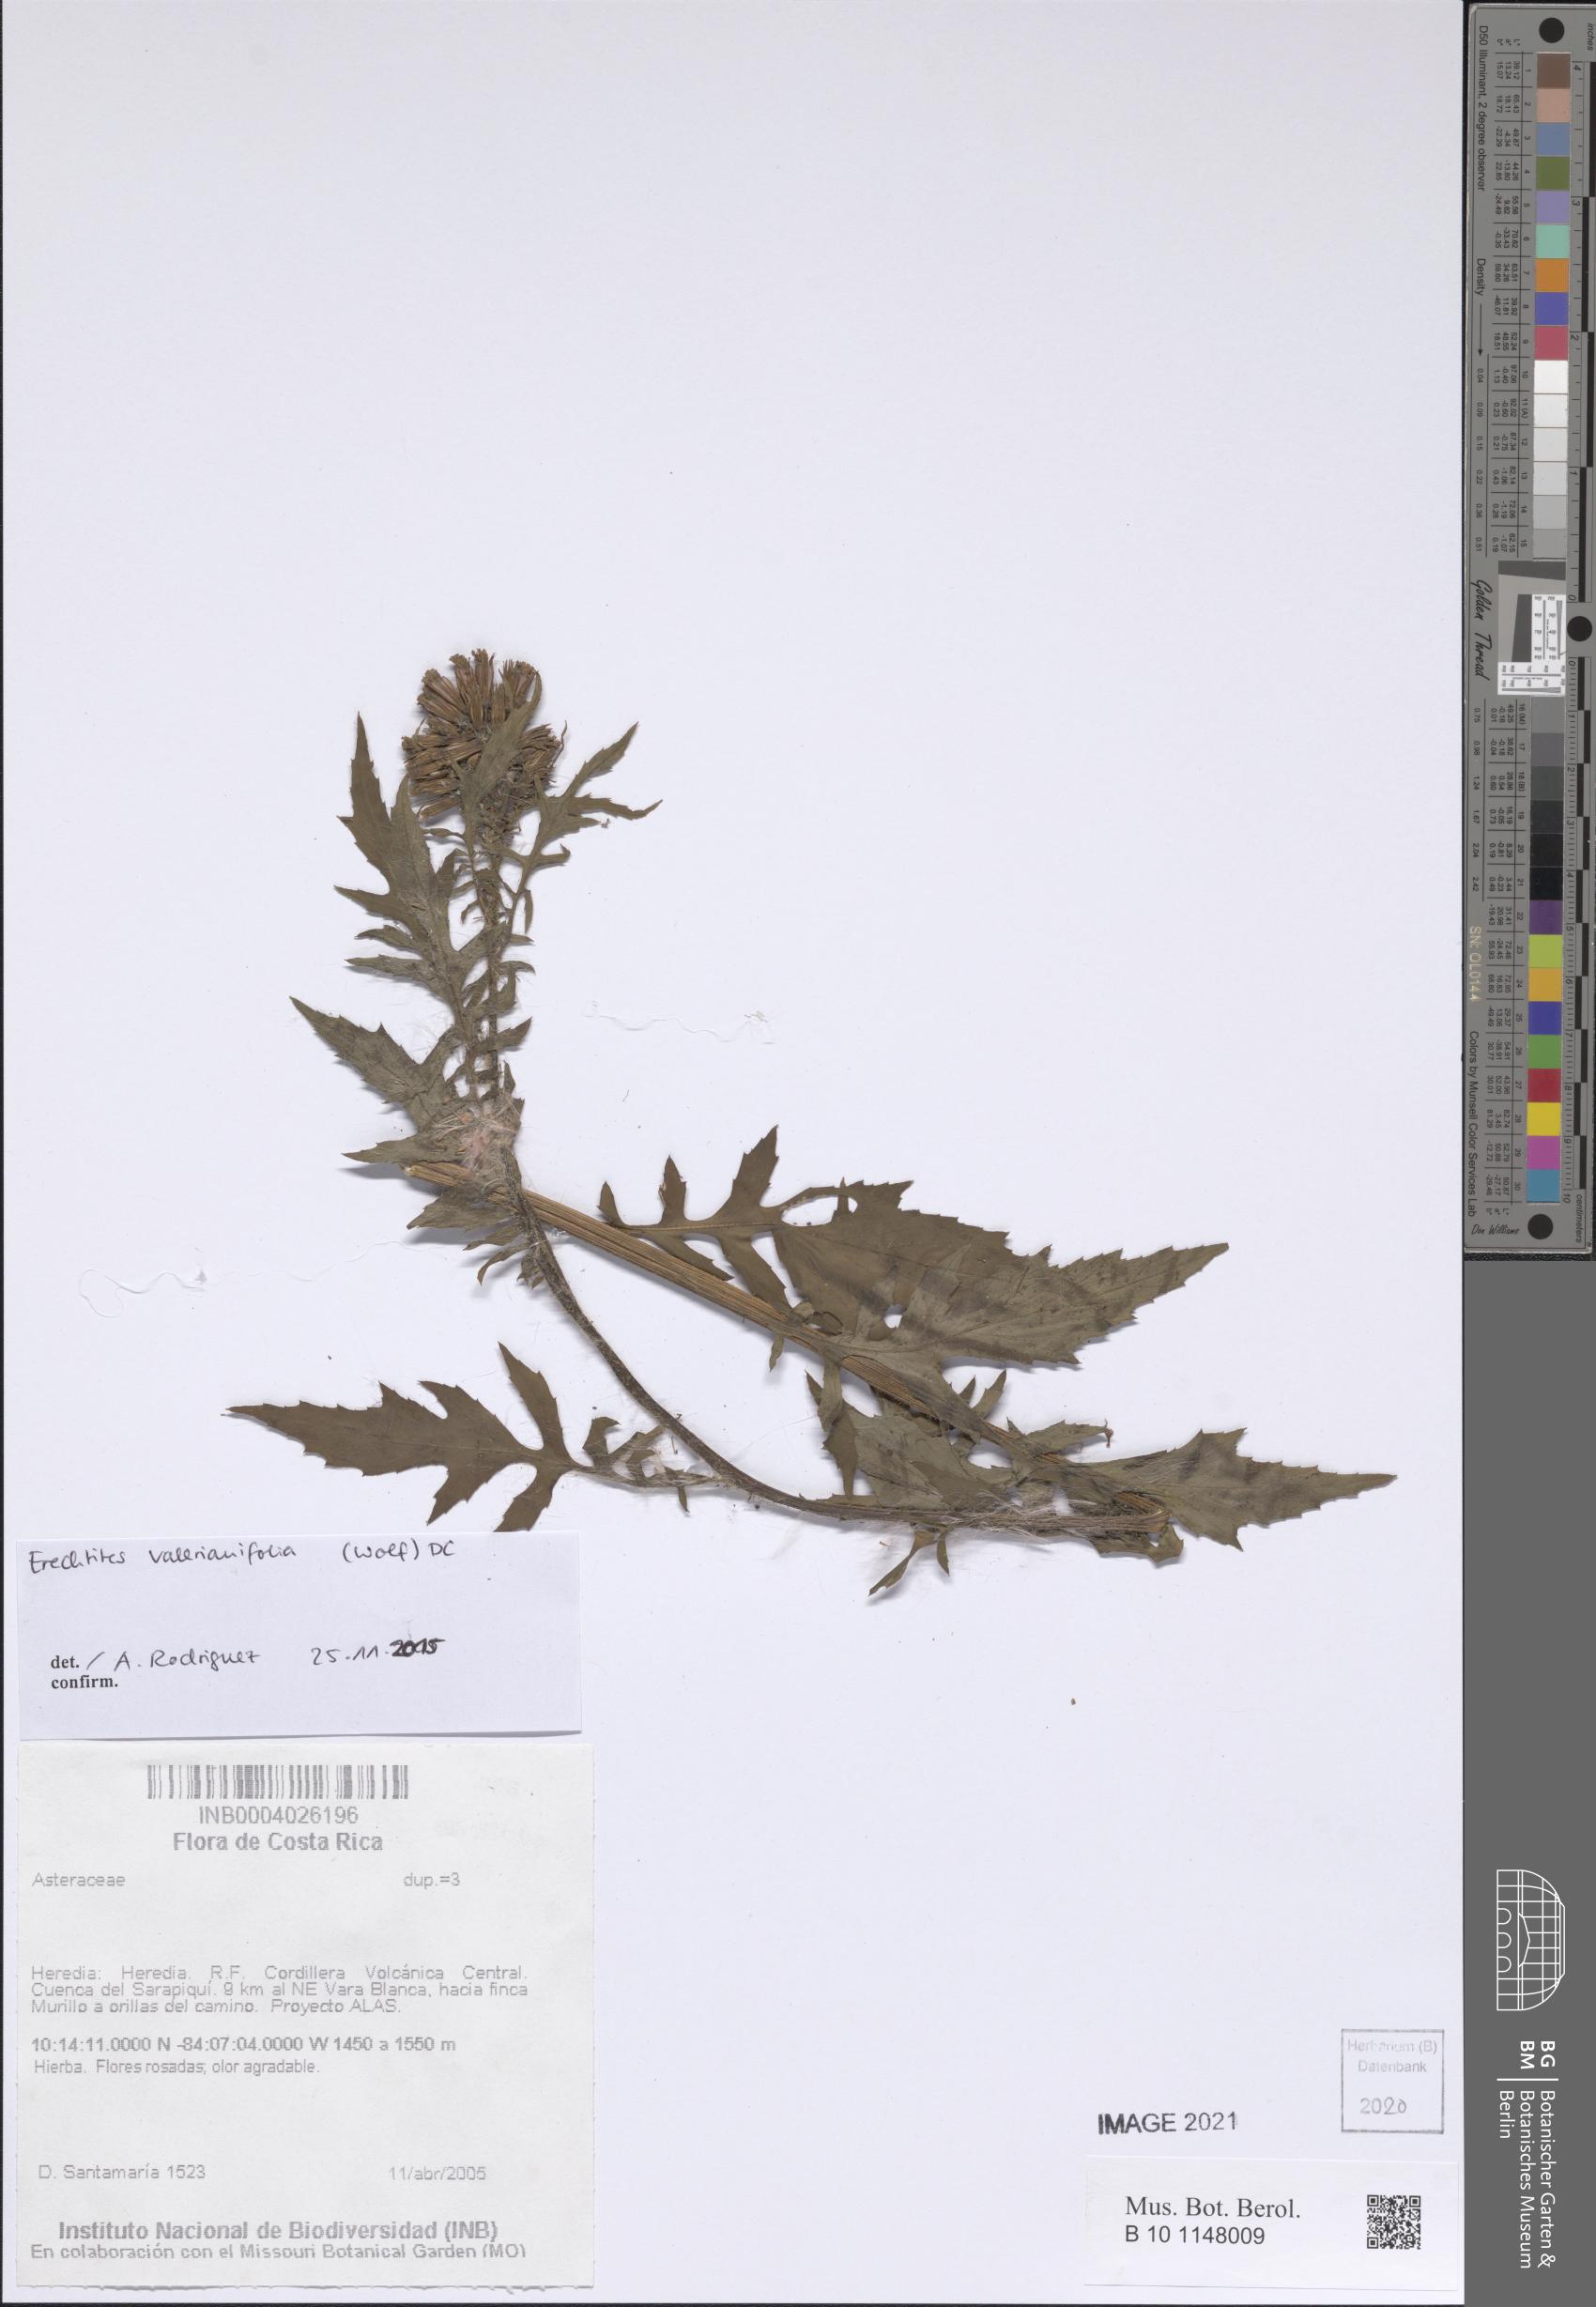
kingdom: Plantae
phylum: Tracheophyta
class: Magnoliopsida
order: Asterales
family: Asteraceae
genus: Erechtites
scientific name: Erechtites valerianifolius
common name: Tropical burnweed
